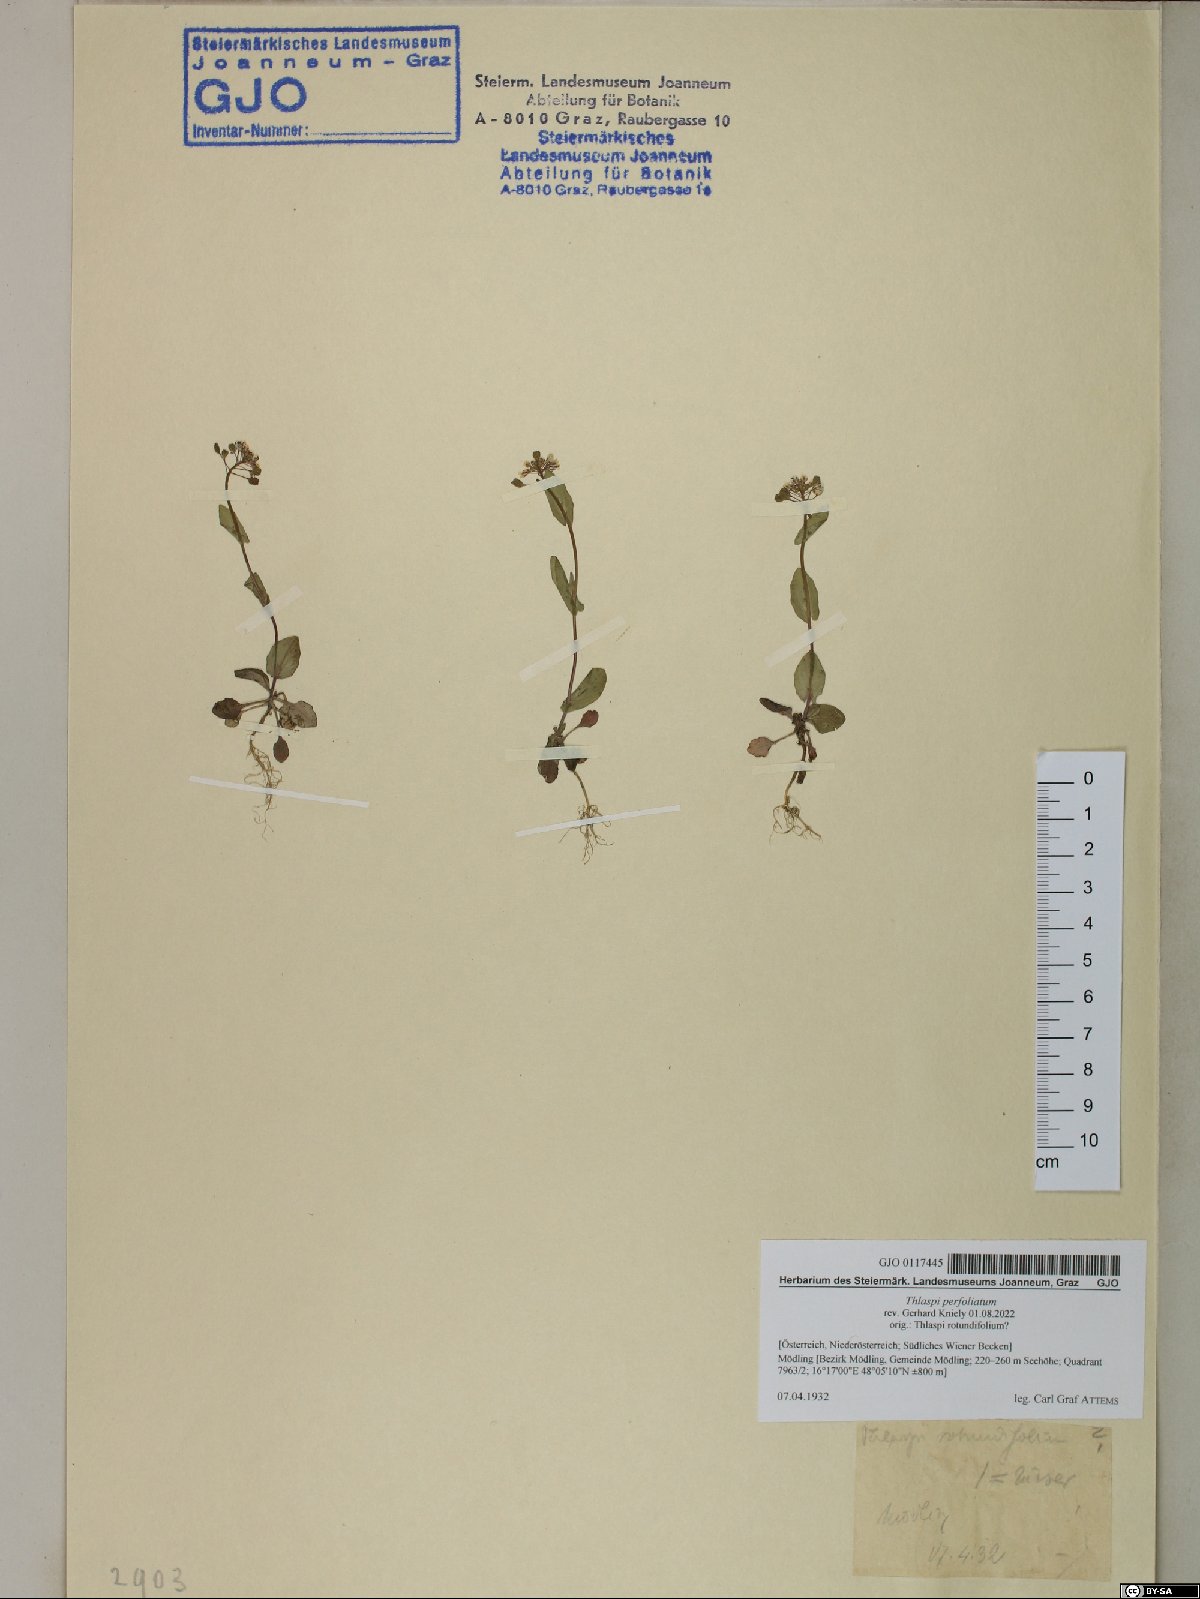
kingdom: Plantae
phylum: Tracheophyta
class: Magnoliopsida
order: Brassicales
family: Brassicaceae
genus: Noccaea
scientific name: Noccaea perfoliata
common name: Perfoliate pennycress
